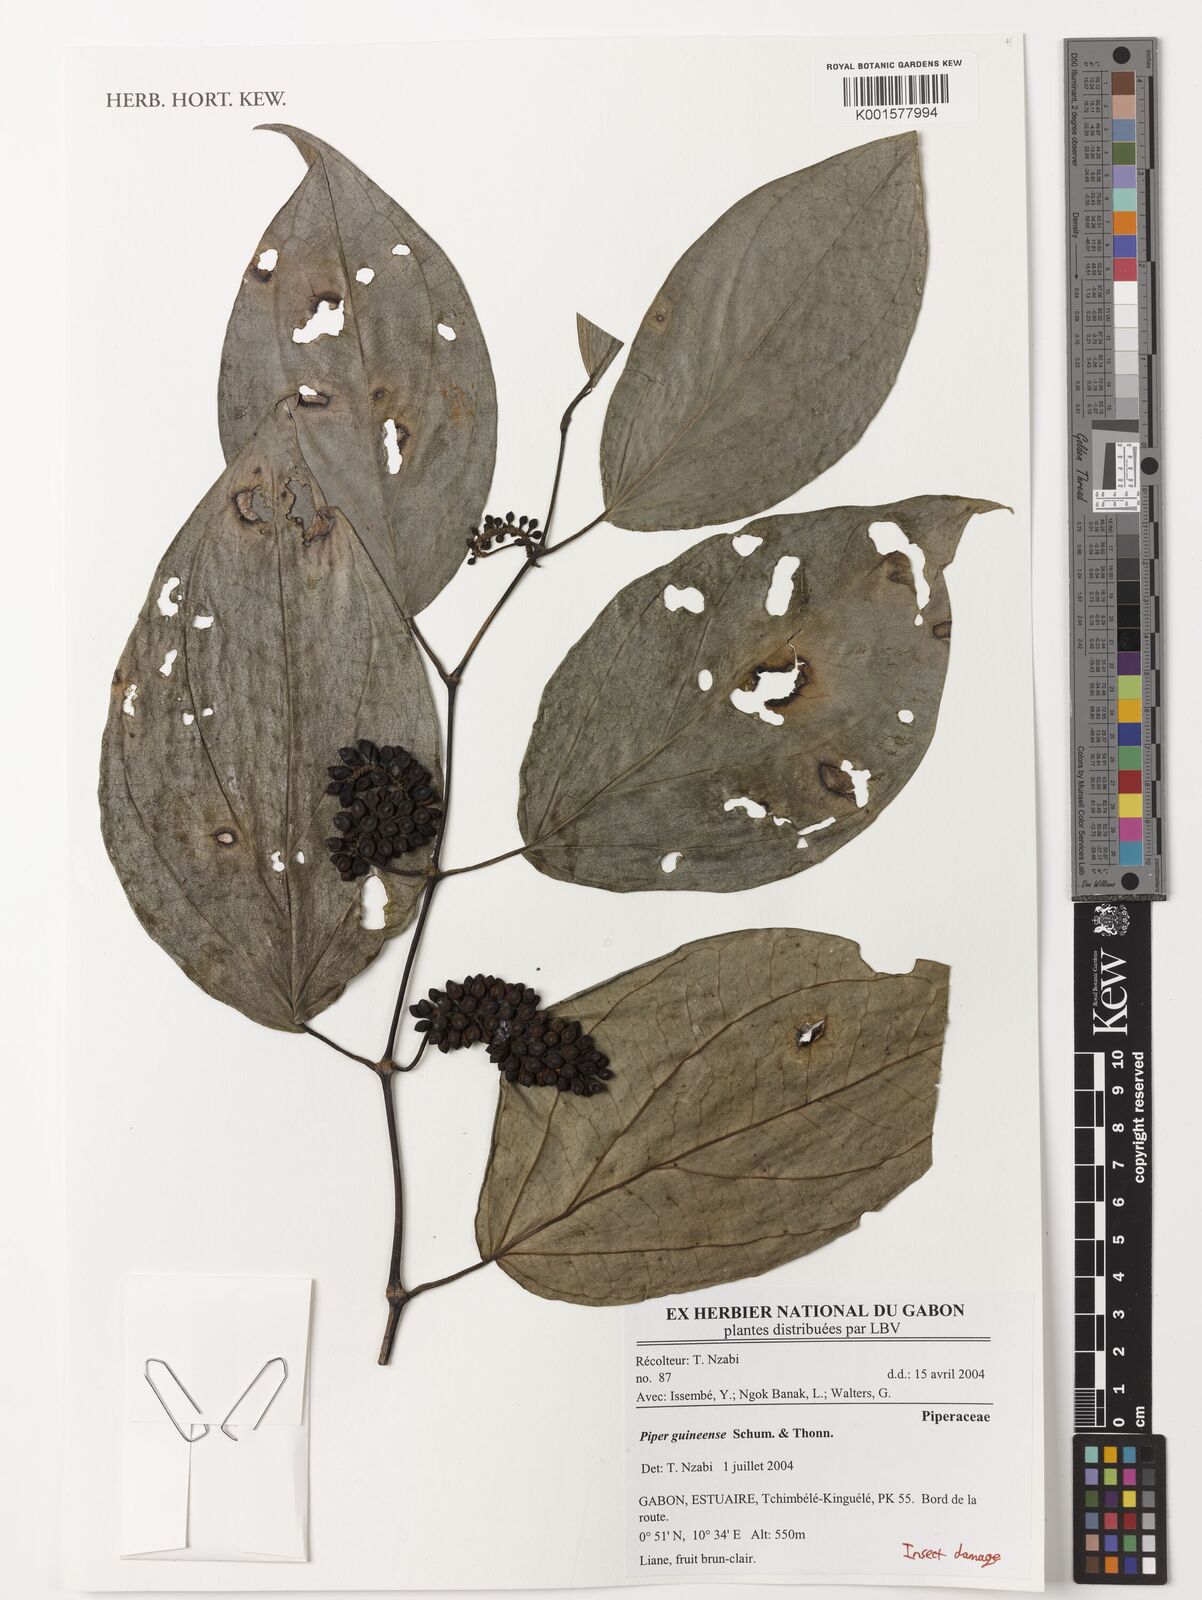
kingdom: Plantae
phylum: Tracheophyta
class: Magnoliopsida
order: Piperales
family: Piperaceae
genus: Piper
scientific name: Piper guineense
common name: Benin pepper
